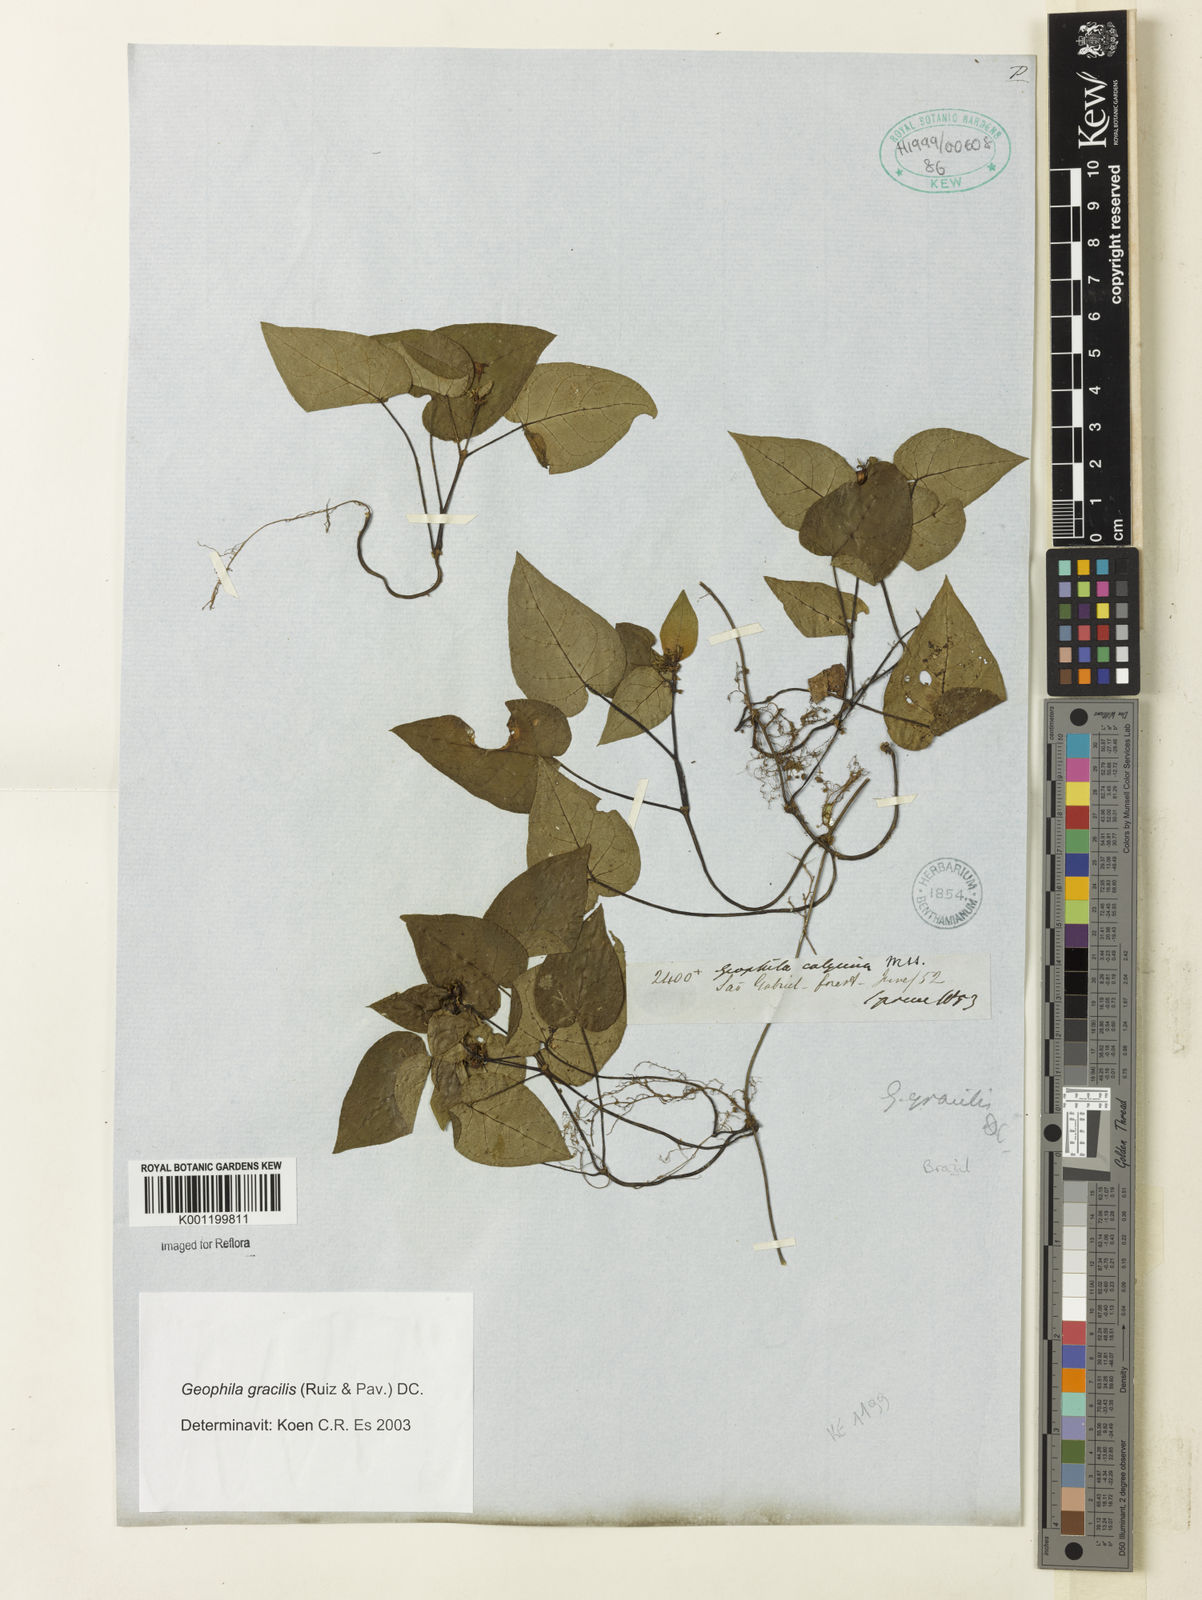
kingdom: Plantae
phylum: Tracheophyta
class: Magnoliopsida
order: Gentianales
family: Rubiaceae
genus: Geophila
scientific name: Geophila gracilis
